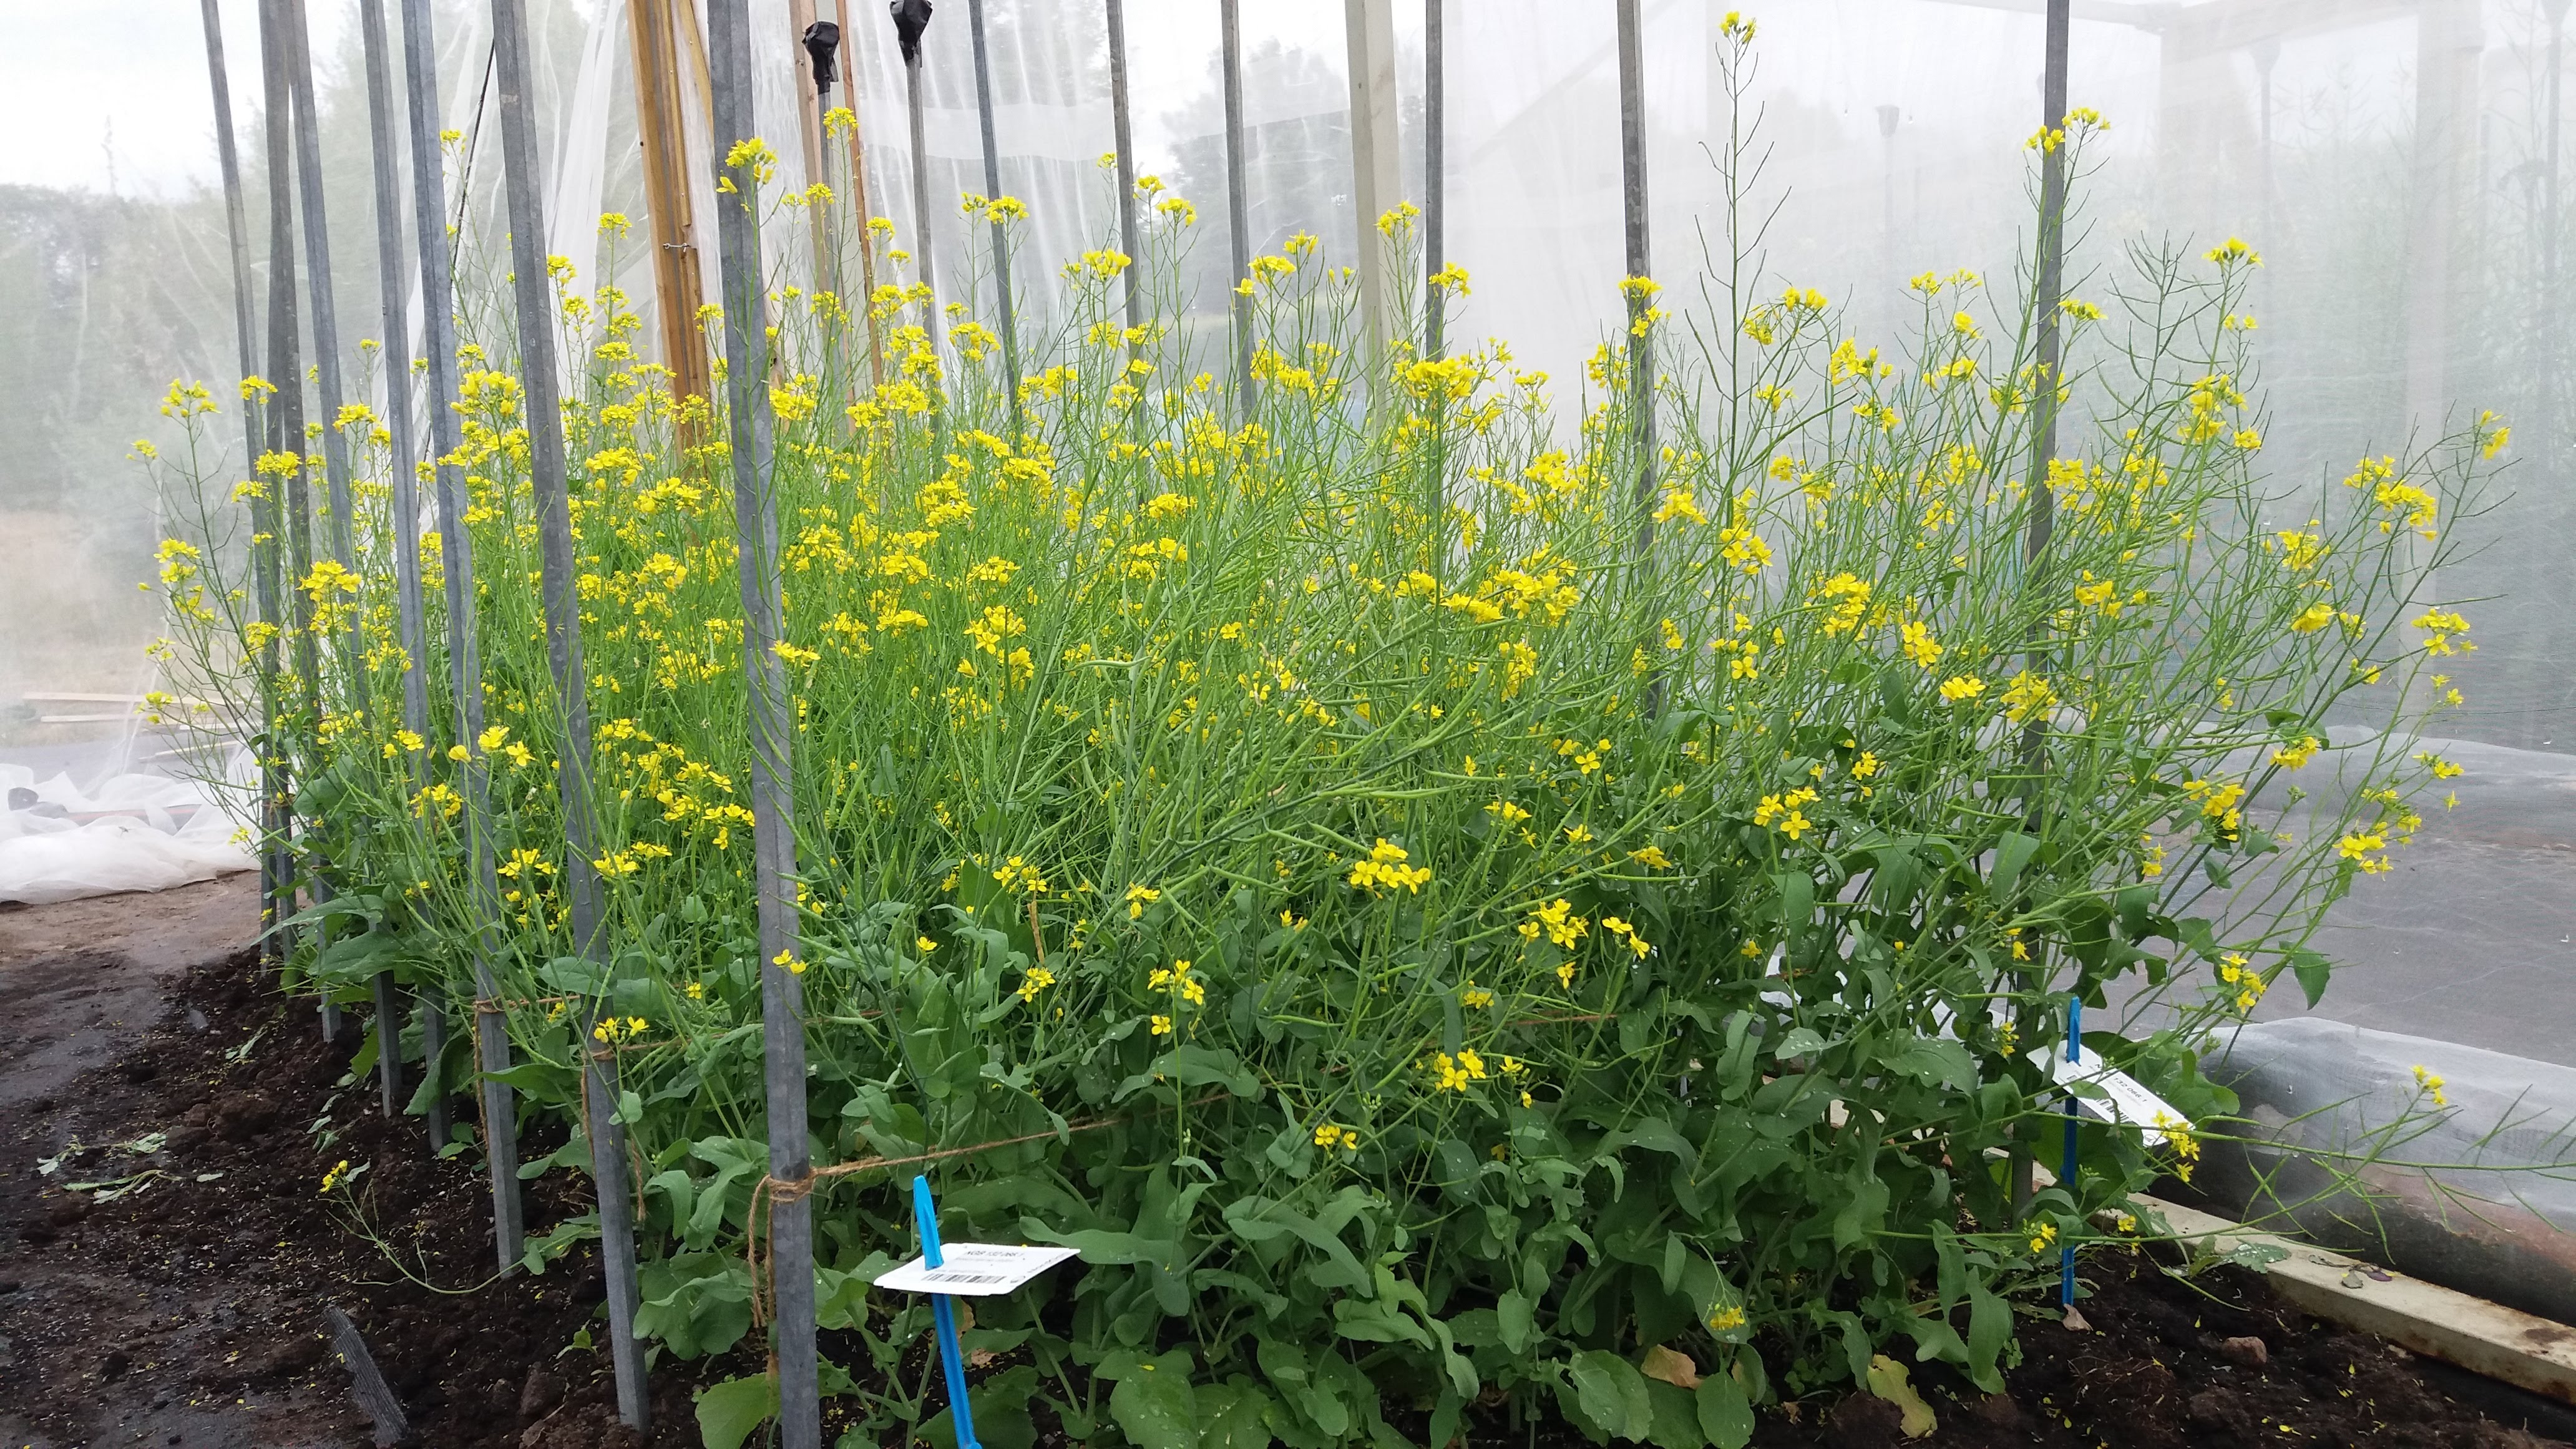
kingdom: Plantae
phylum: Tracheophyta
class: Magnoliopsida
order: Brassicales
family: Brassicaceae
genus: Brassica
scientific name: Brassica rapa
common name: Field mustard
